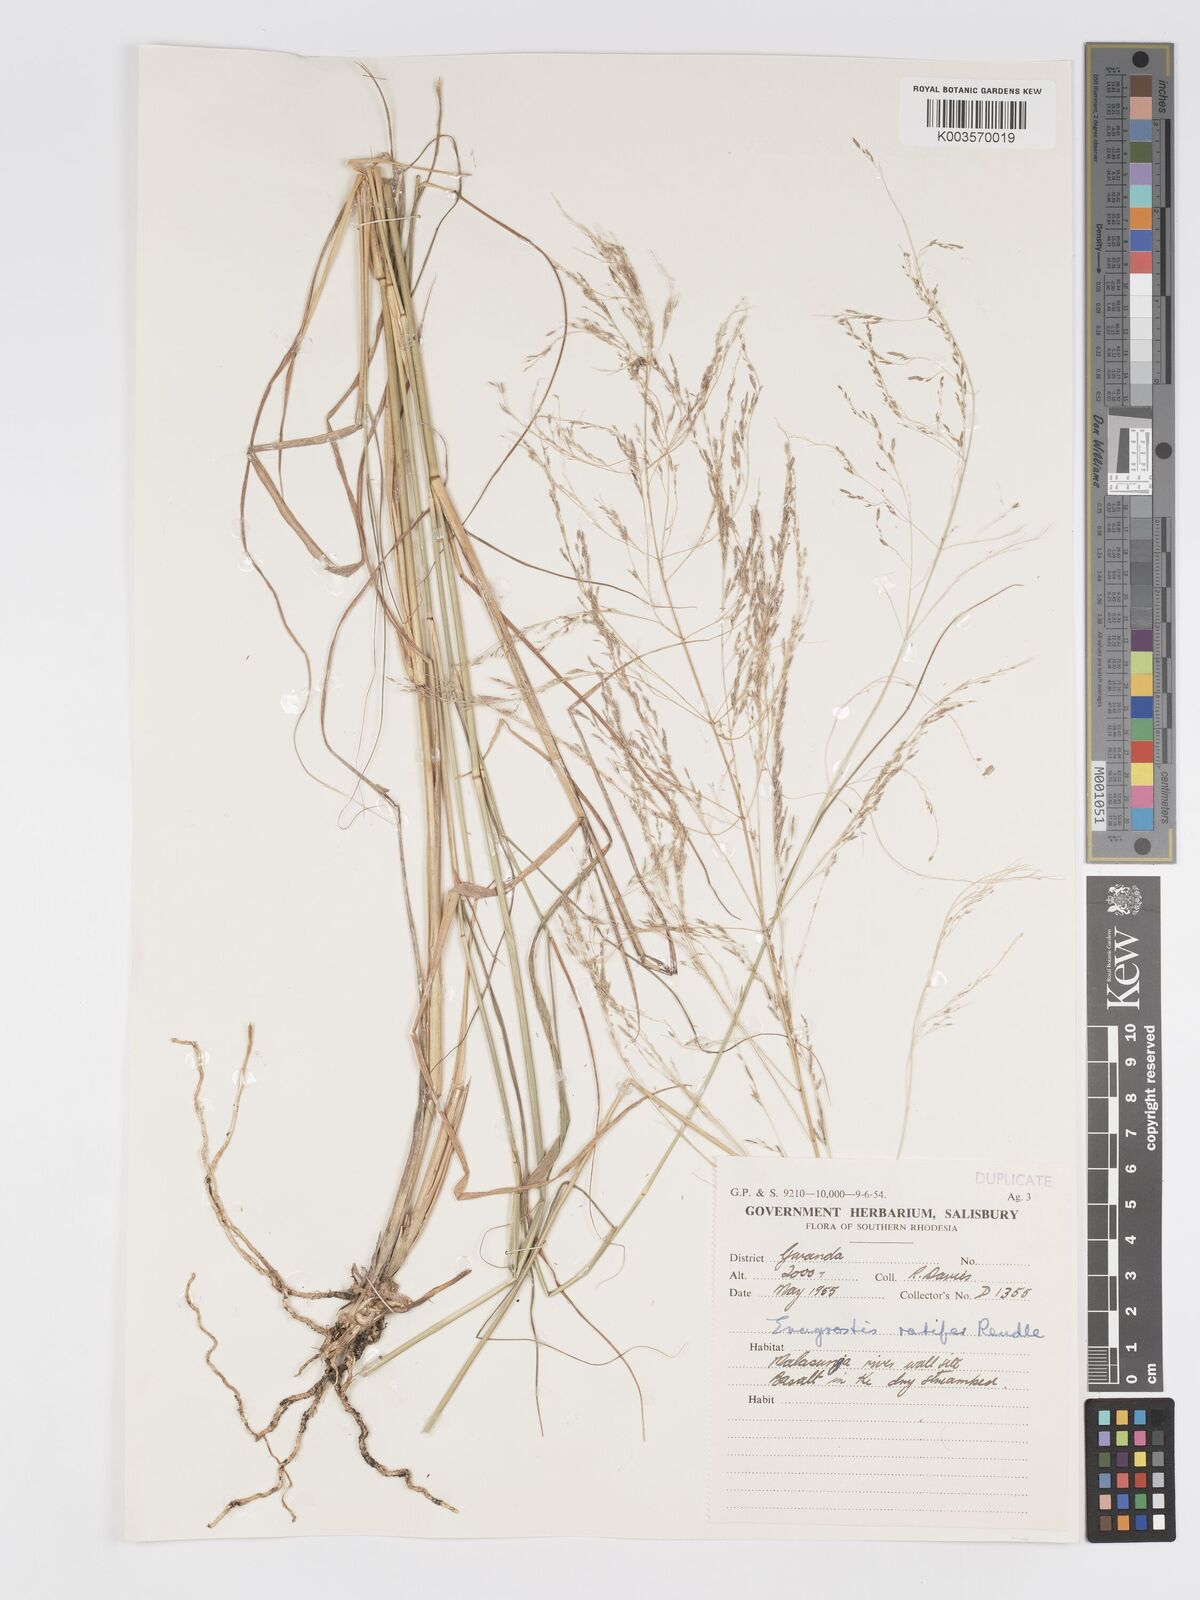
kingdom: Plantae
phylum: Tracheophyta
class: Liliopsida
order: Poales
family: Poaceae
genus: Eragrostis
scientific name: Eragrostis rotifer
